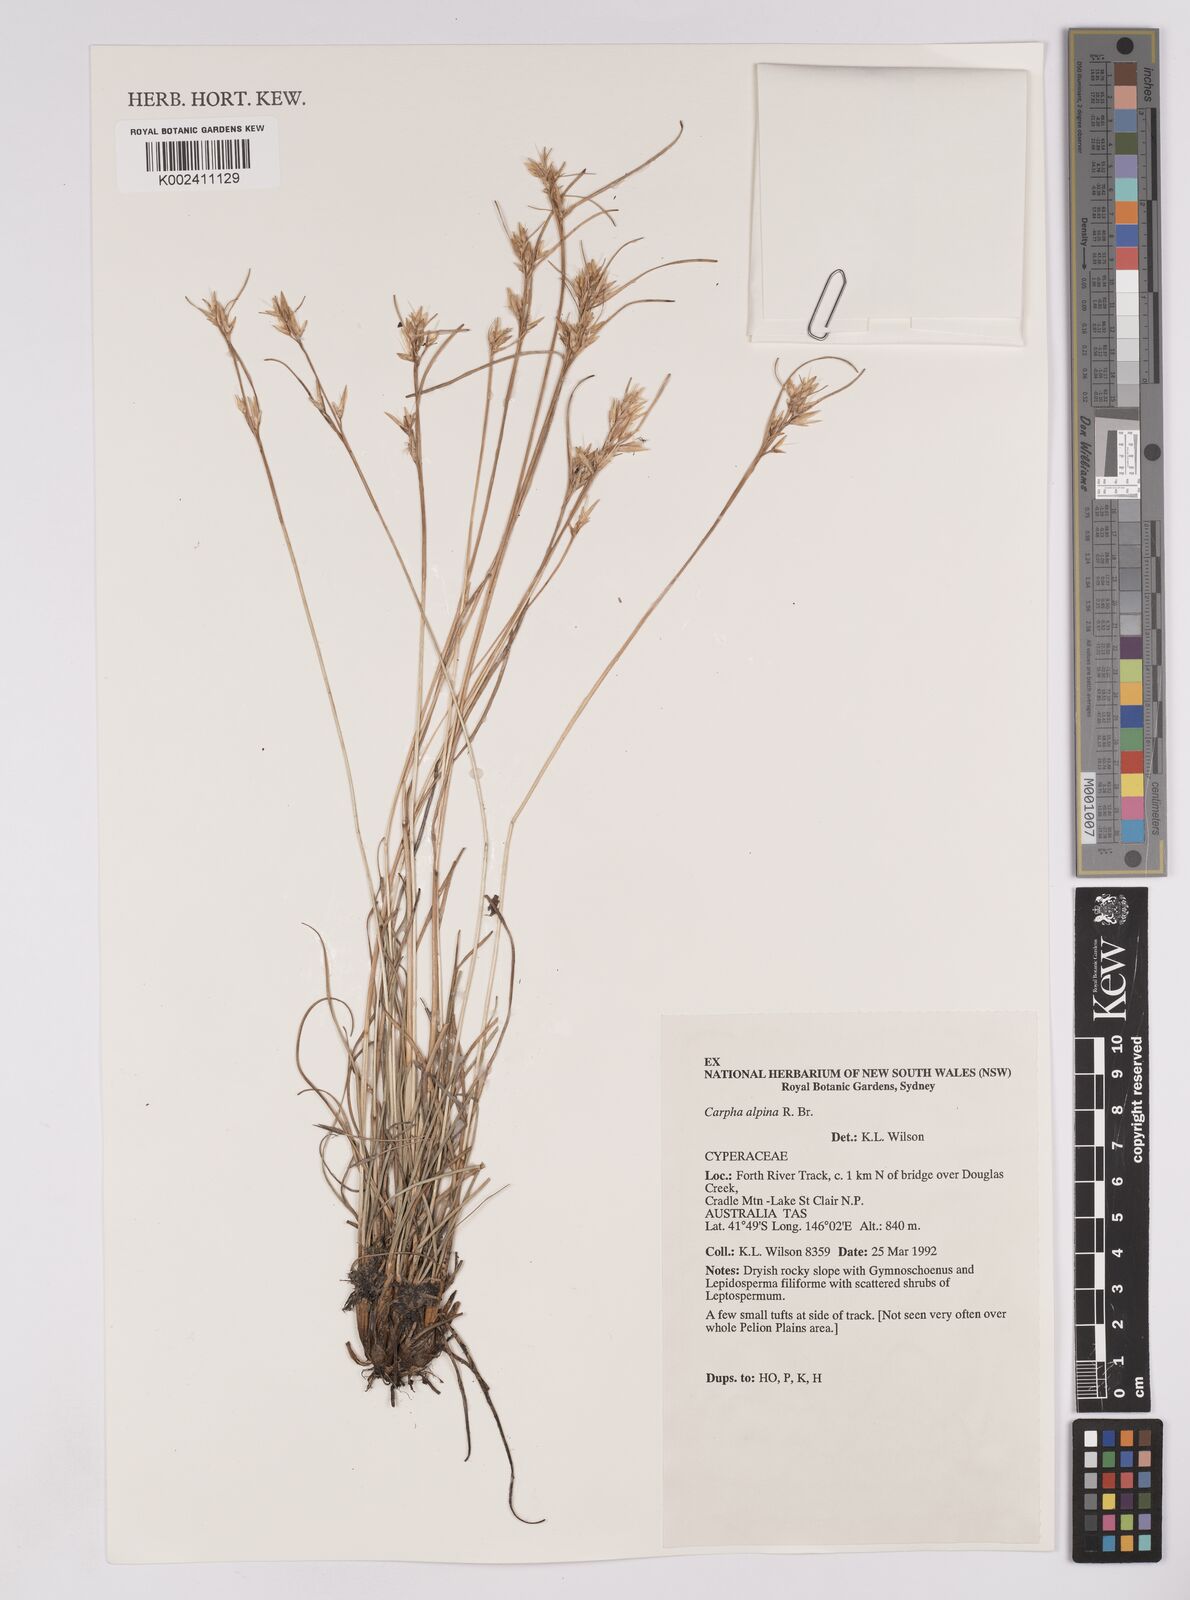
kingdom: Plantae
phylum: Tracheophyta
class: Liliopsida
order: Poales
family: Cyperaceae
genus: Carpha
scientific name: Carpha alpina
